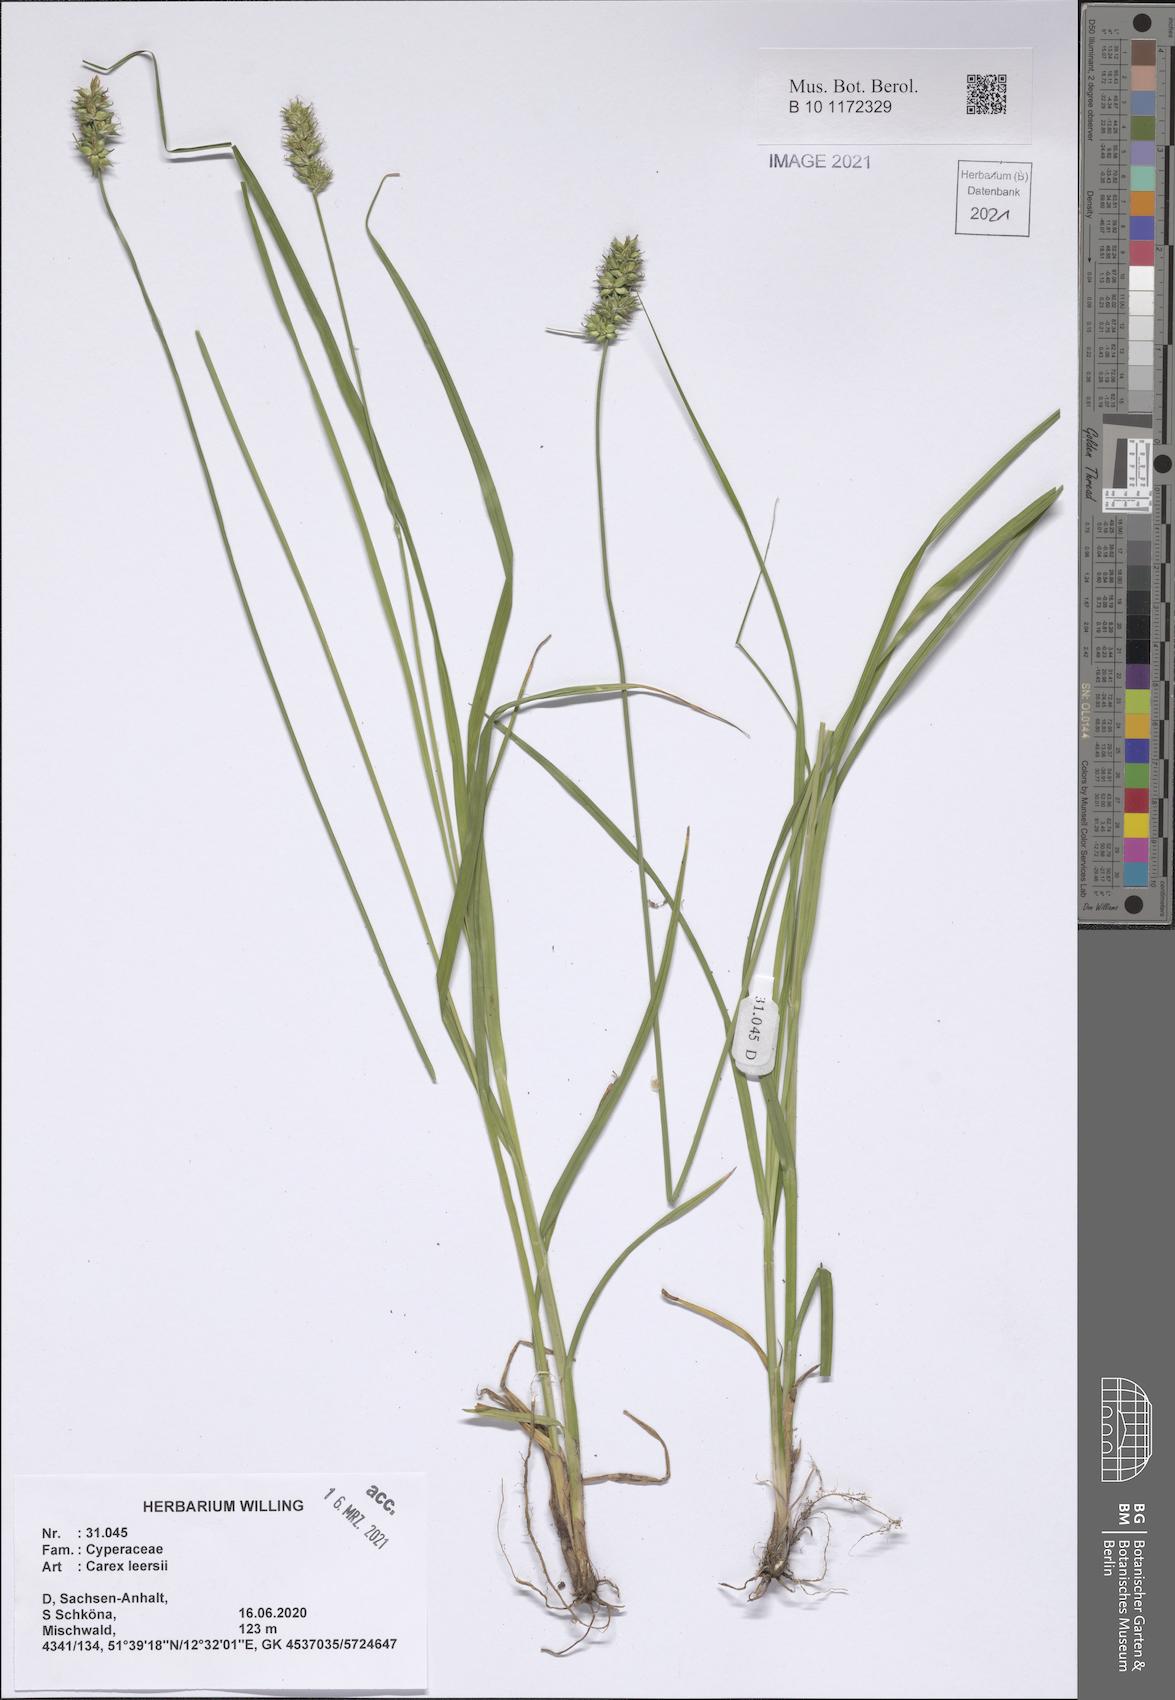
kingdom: Plantae
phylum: Tracheophyta
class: Liliopsida
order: Poales
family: Cyperaceae
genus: Carex
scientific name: Carex leersii
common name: Leers' sedge
